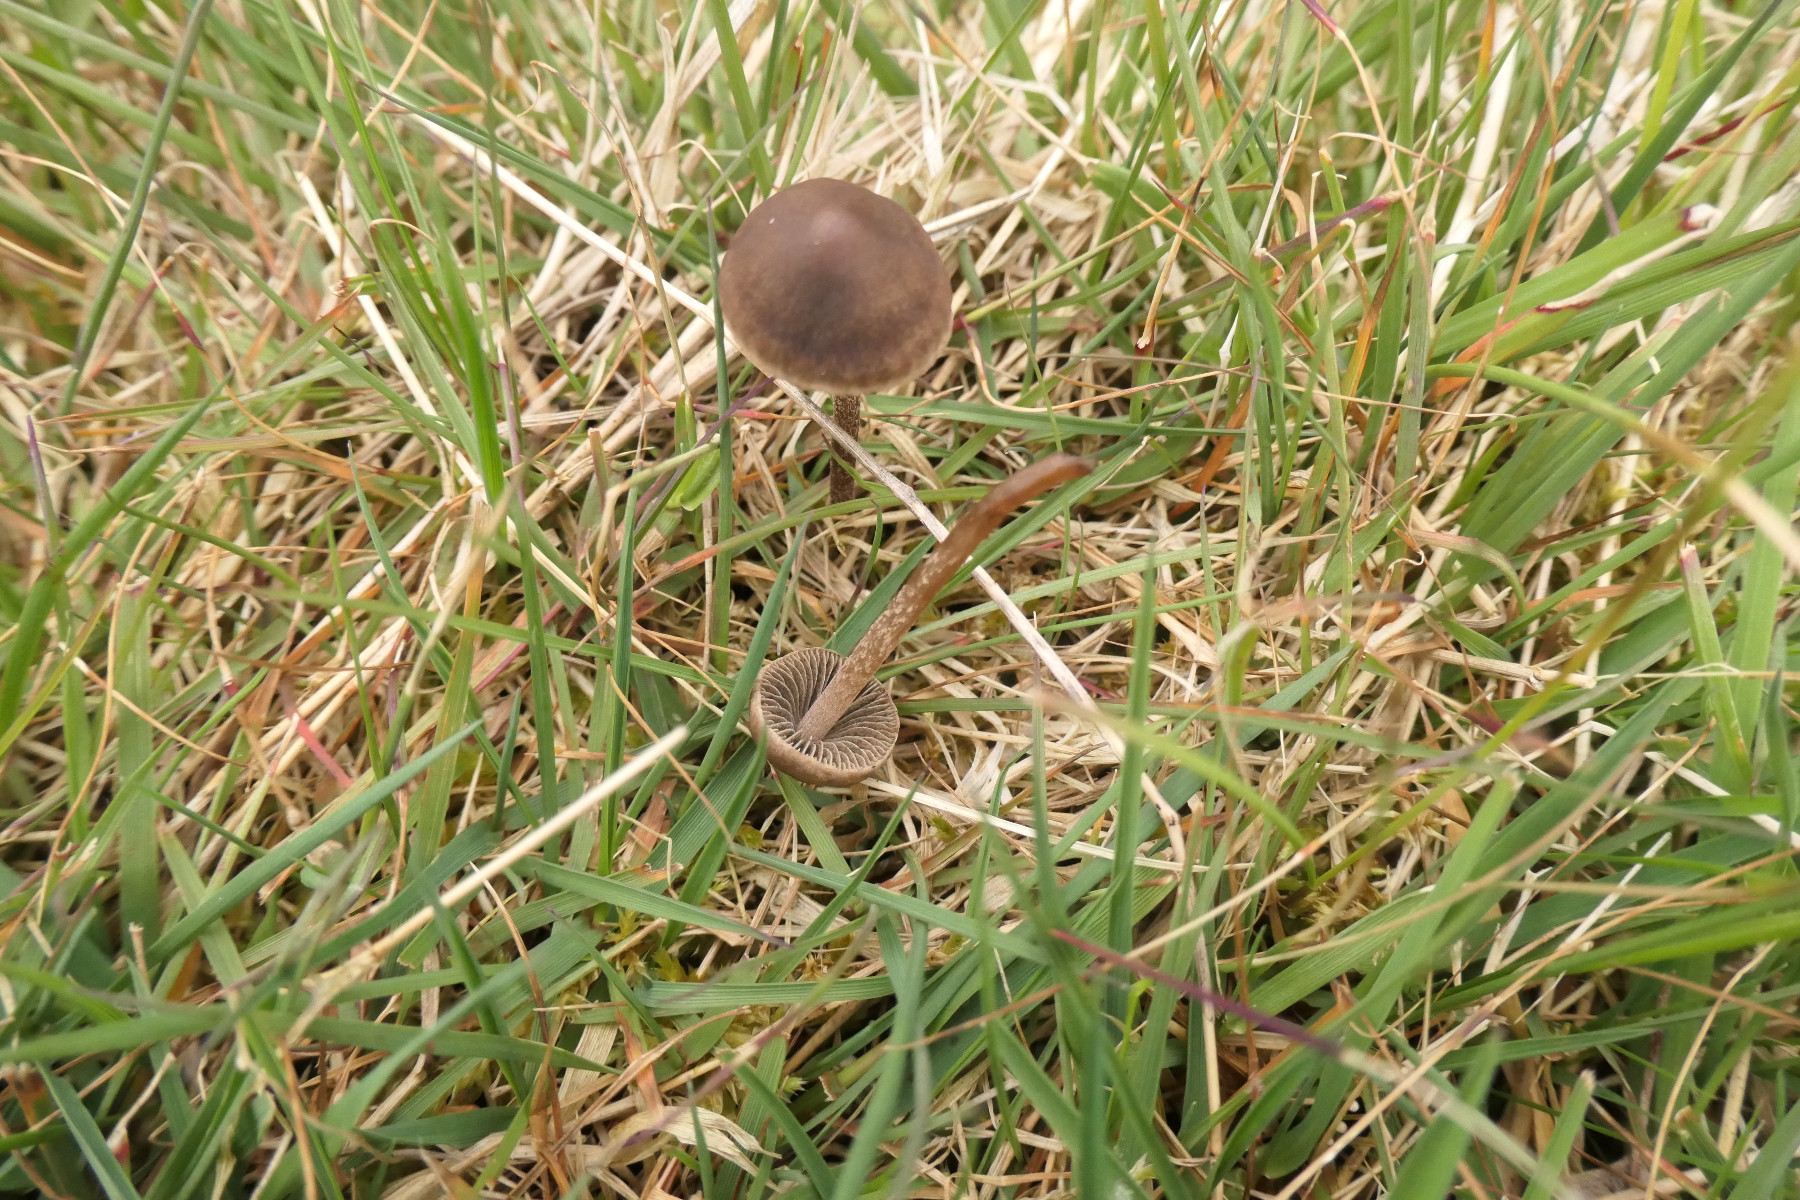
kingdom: Fungi
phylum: Basidiomycota
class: Agaricomycetes
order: Agaricales
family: Bolbitiaceae
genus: Panaeolus
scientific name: Panaeolus fimicola
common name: tidlig glanshat
